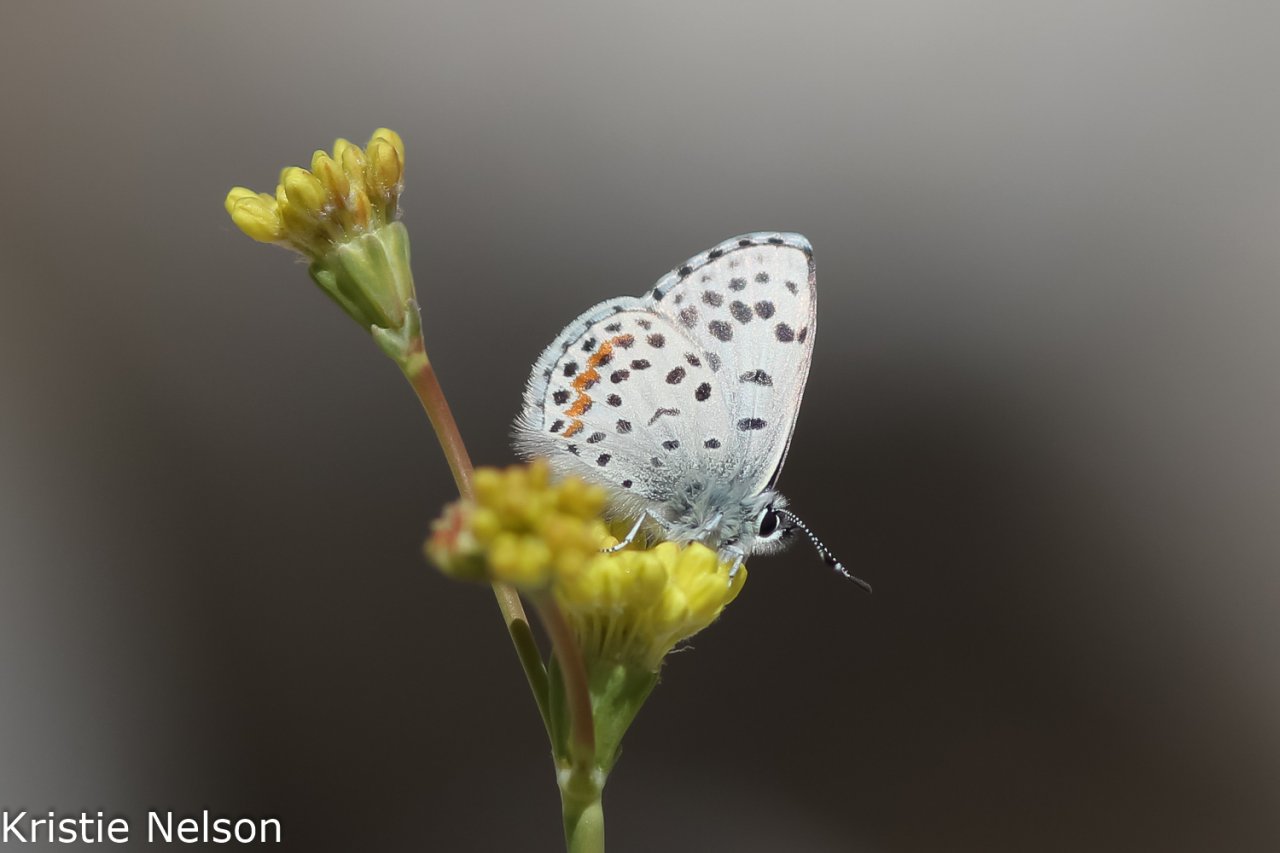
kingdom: Animalia
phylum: Arthropoda
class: Insecta
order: Lepidoptera
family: Lycaenidae
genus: Euphilotes
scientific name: Euphilotes
